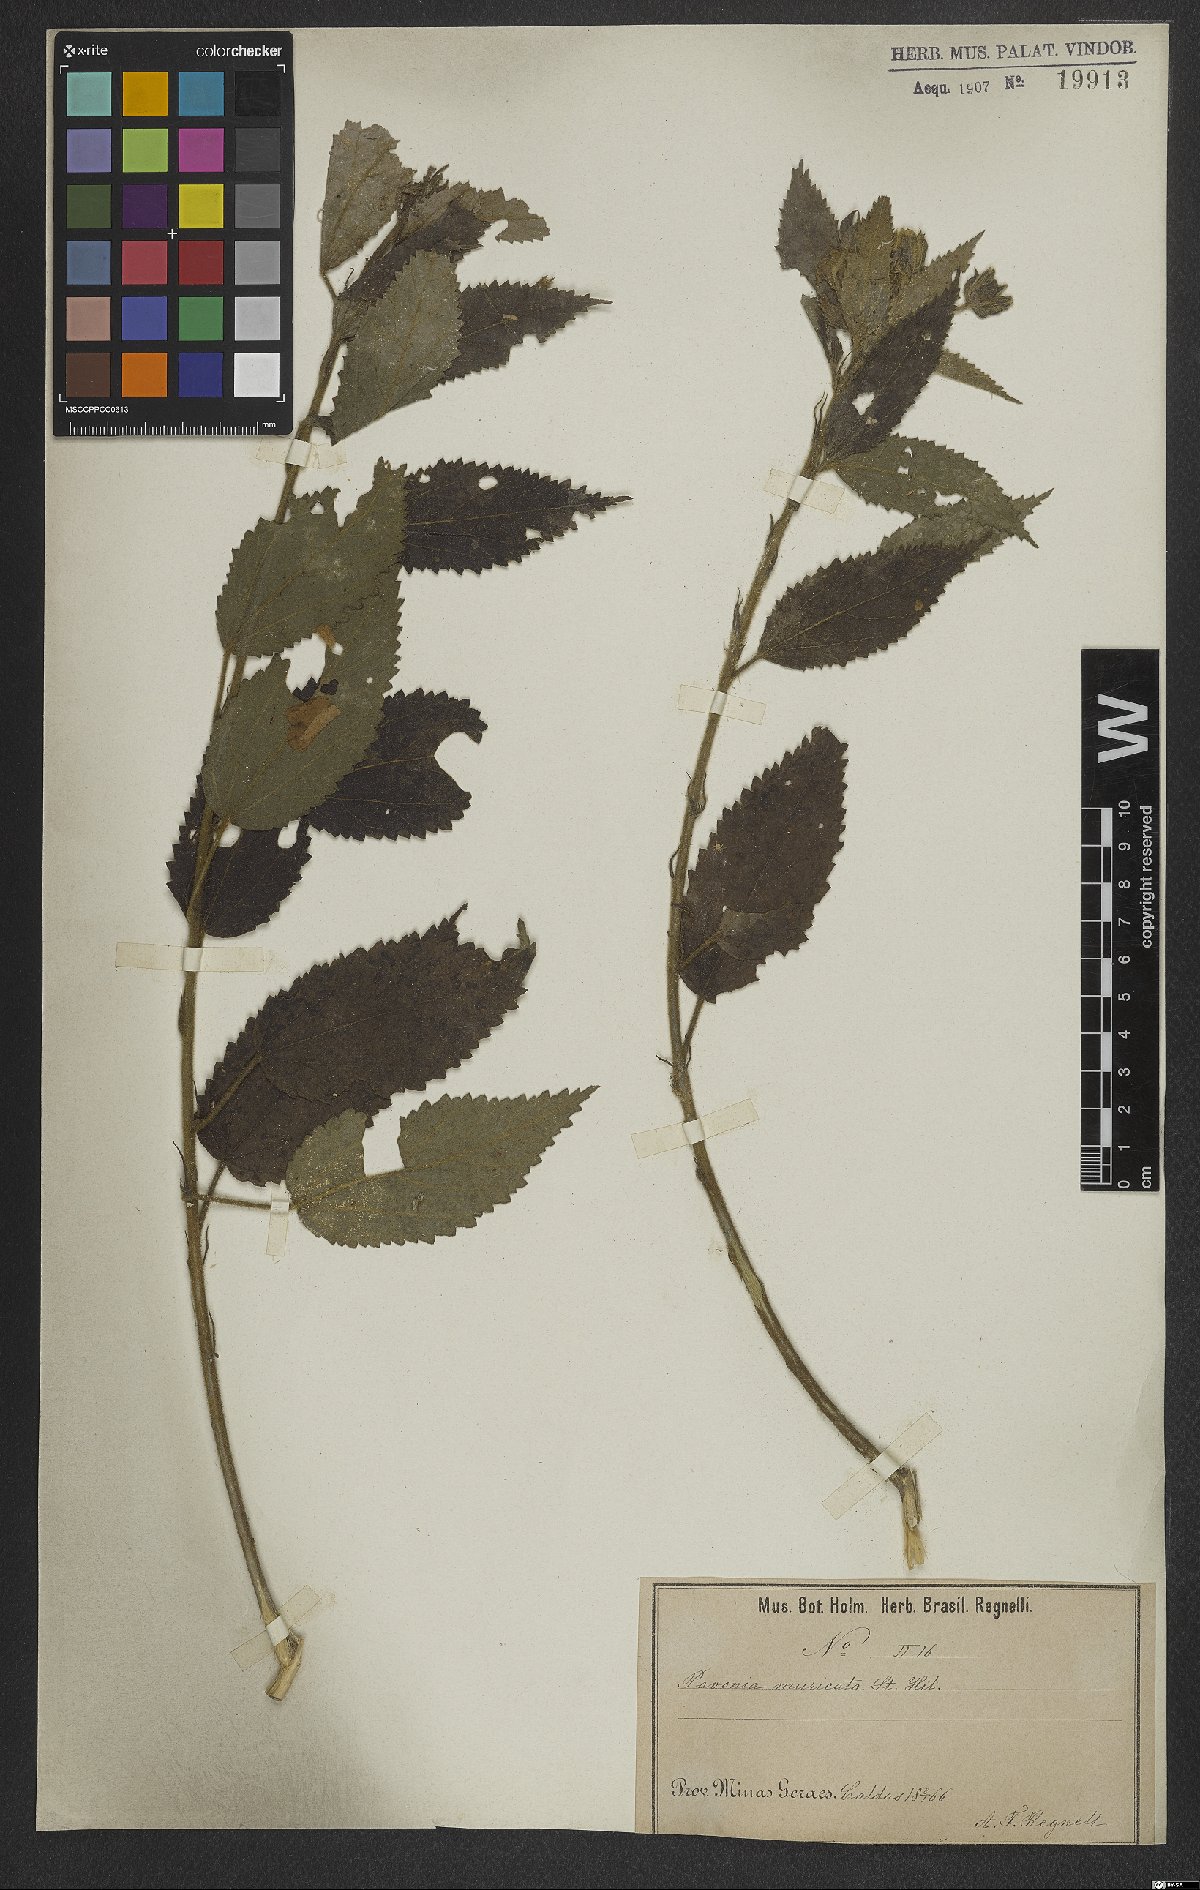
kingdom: Plantae
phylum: Tracheophyta
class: Magnoliopsida
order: Malvales
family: Malvaceae
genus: Pavonia
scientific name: Pavonia schrankii
